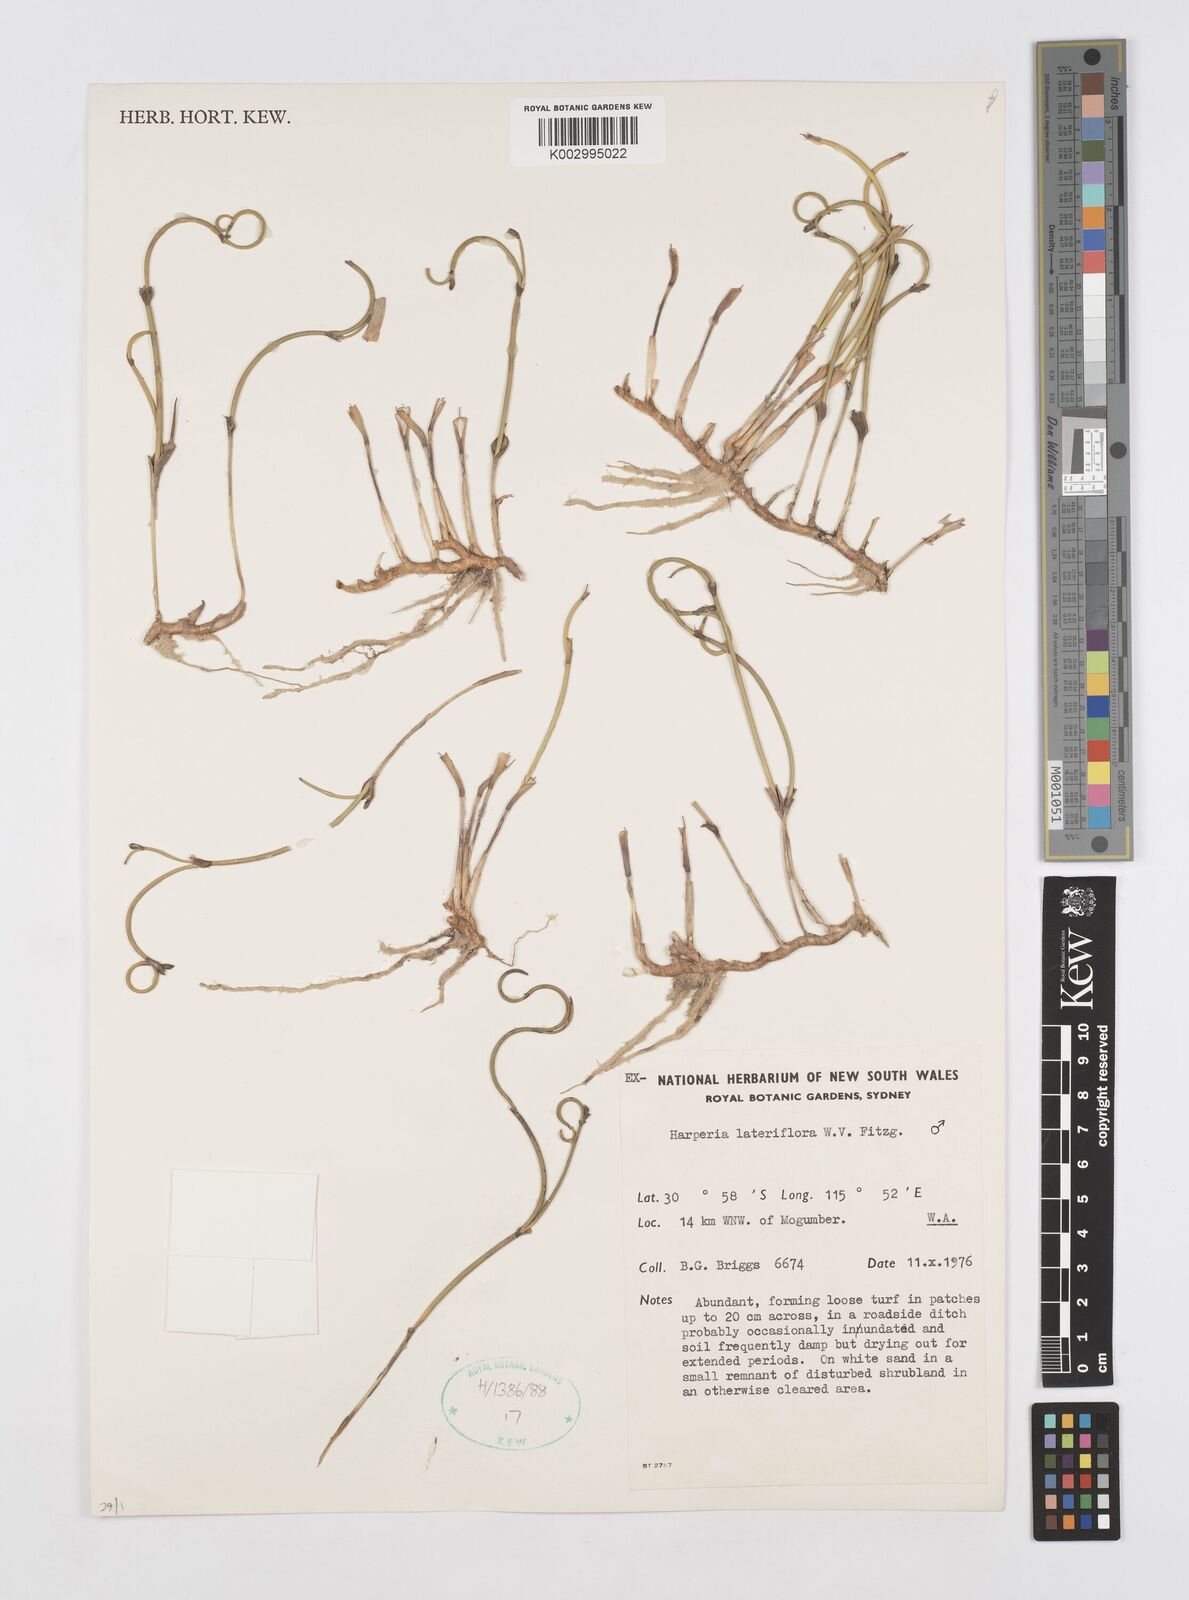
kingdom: Plantae
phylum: Tracheophyta
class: Liliopsida
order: Poales
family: Restionaceae
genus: Desmocladus
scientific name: Desmocladus lateriflorus
